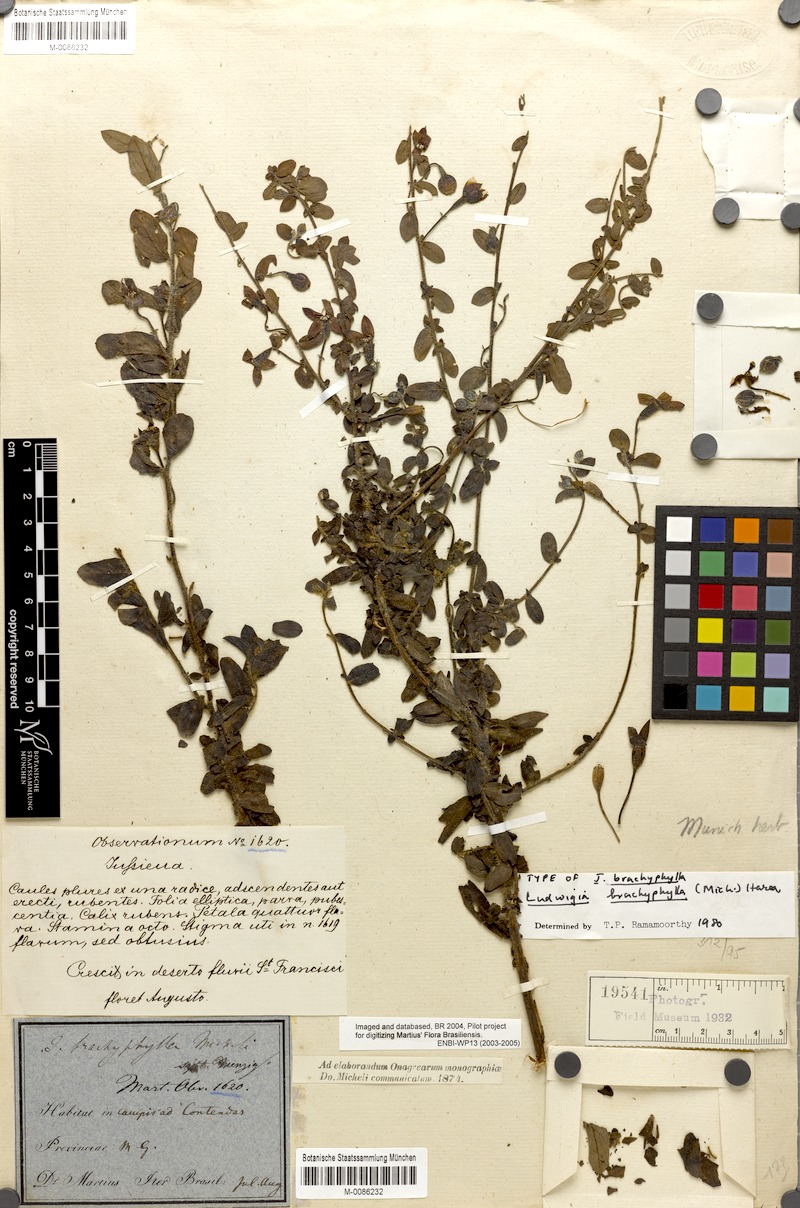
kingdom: Plantae
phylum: Tracheophyta
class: Magnoliopsida
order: Myrtales
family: Onagraceae
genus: Ludwigia
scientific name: Ludwigia brachyphylla
